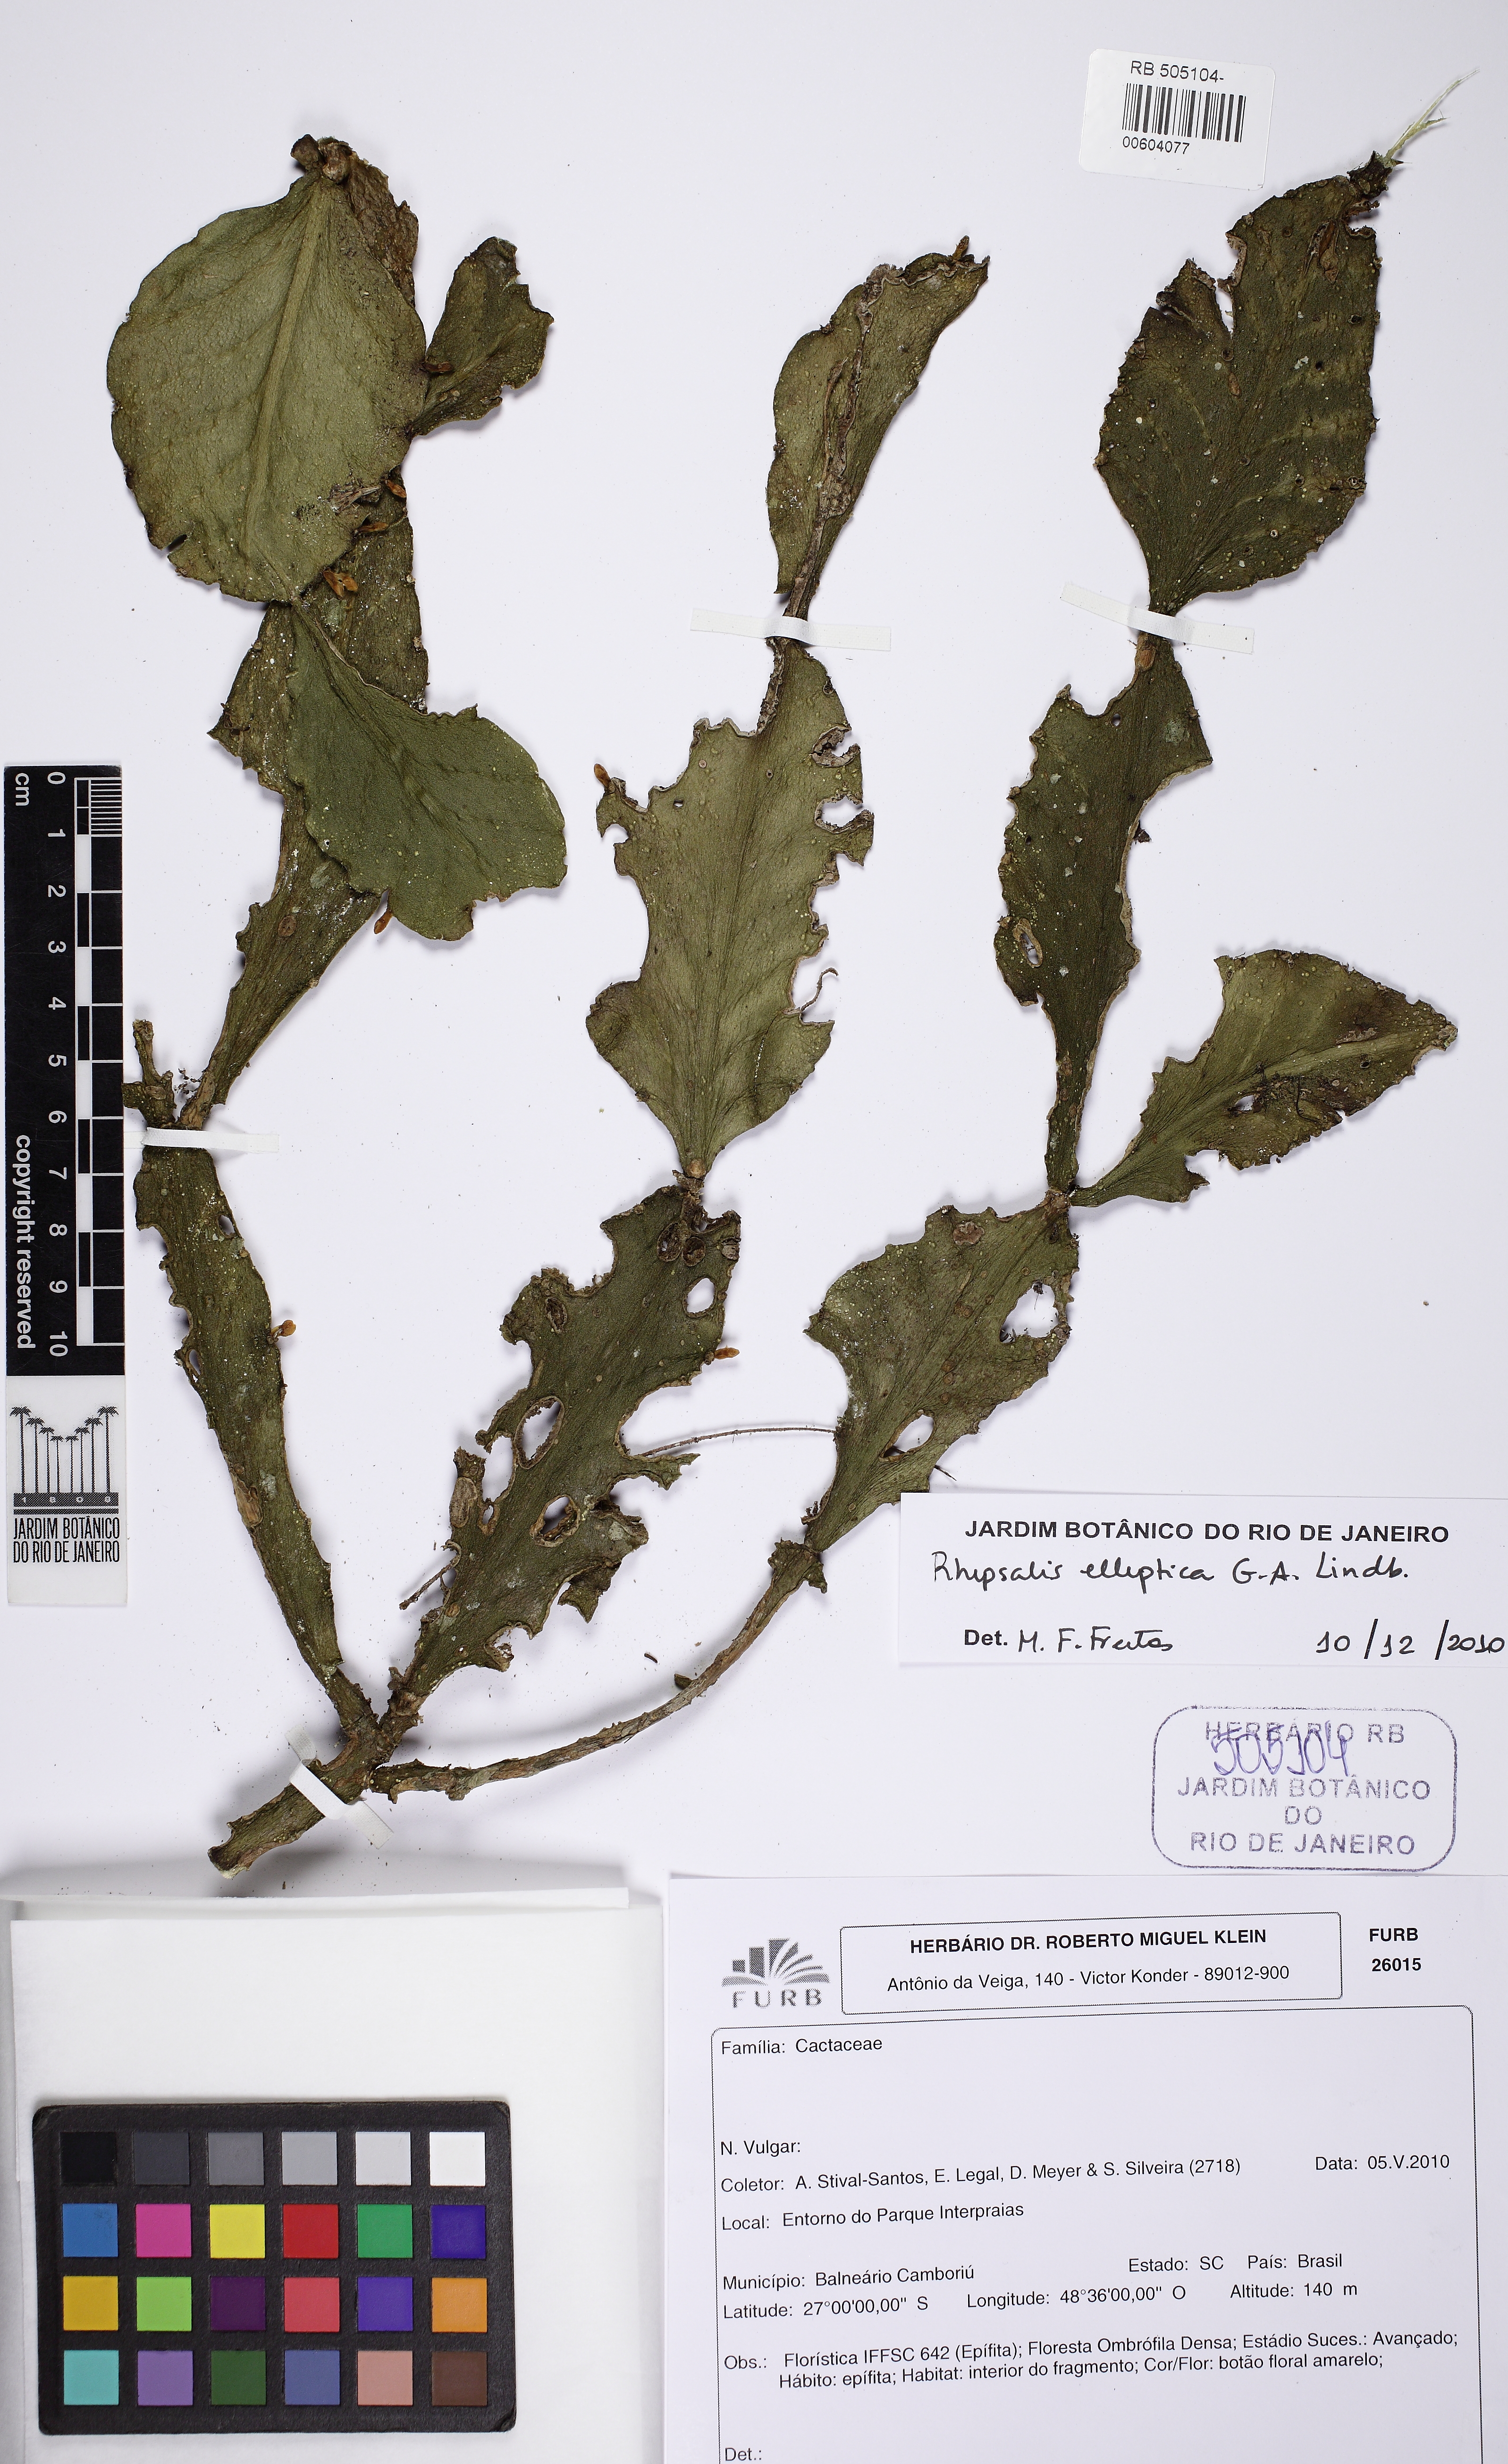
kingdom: Plantae
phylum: Tracheophyta
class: Magnoliopsida
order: Caryophyllales
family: Cactaceae
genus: Rhipsalis
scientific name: Rhipsalis elliptica
